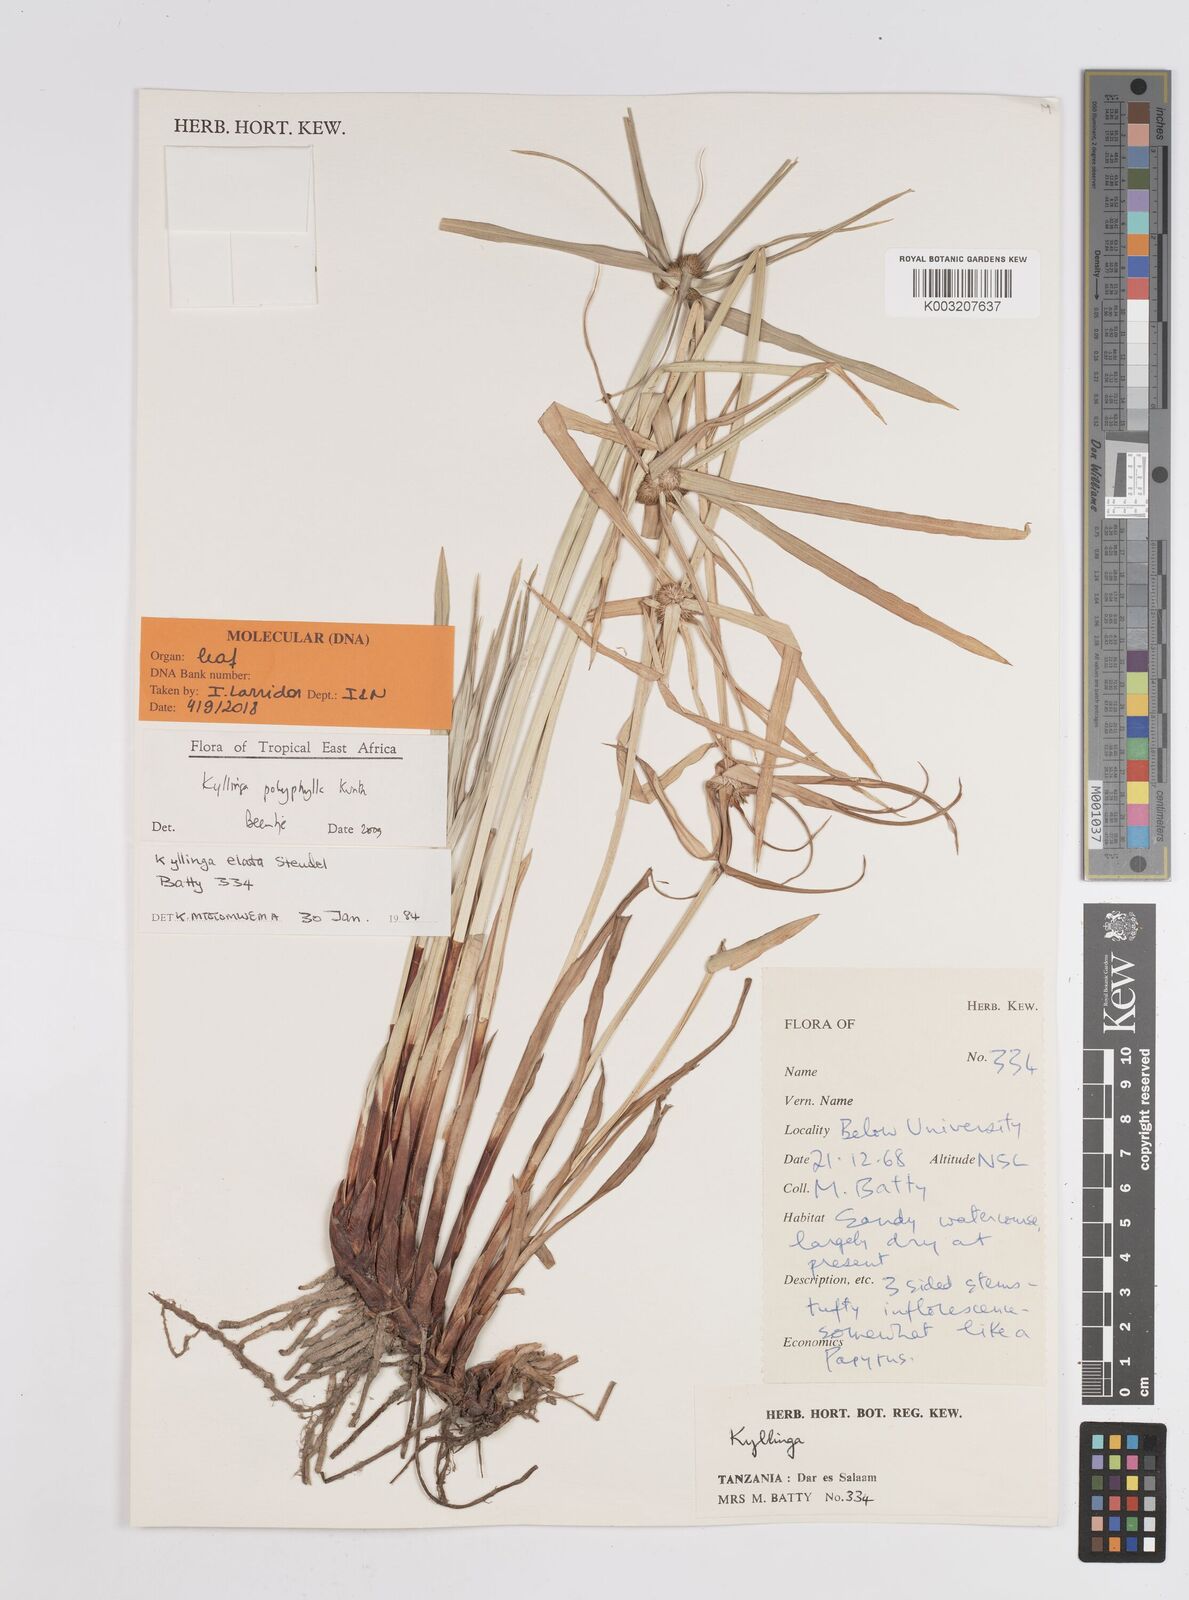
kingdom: Plantae
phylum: Tracheophyta
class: Liliopsida
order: Poales
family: Cyperaceae
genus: Cyperus
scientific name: Cyperus
